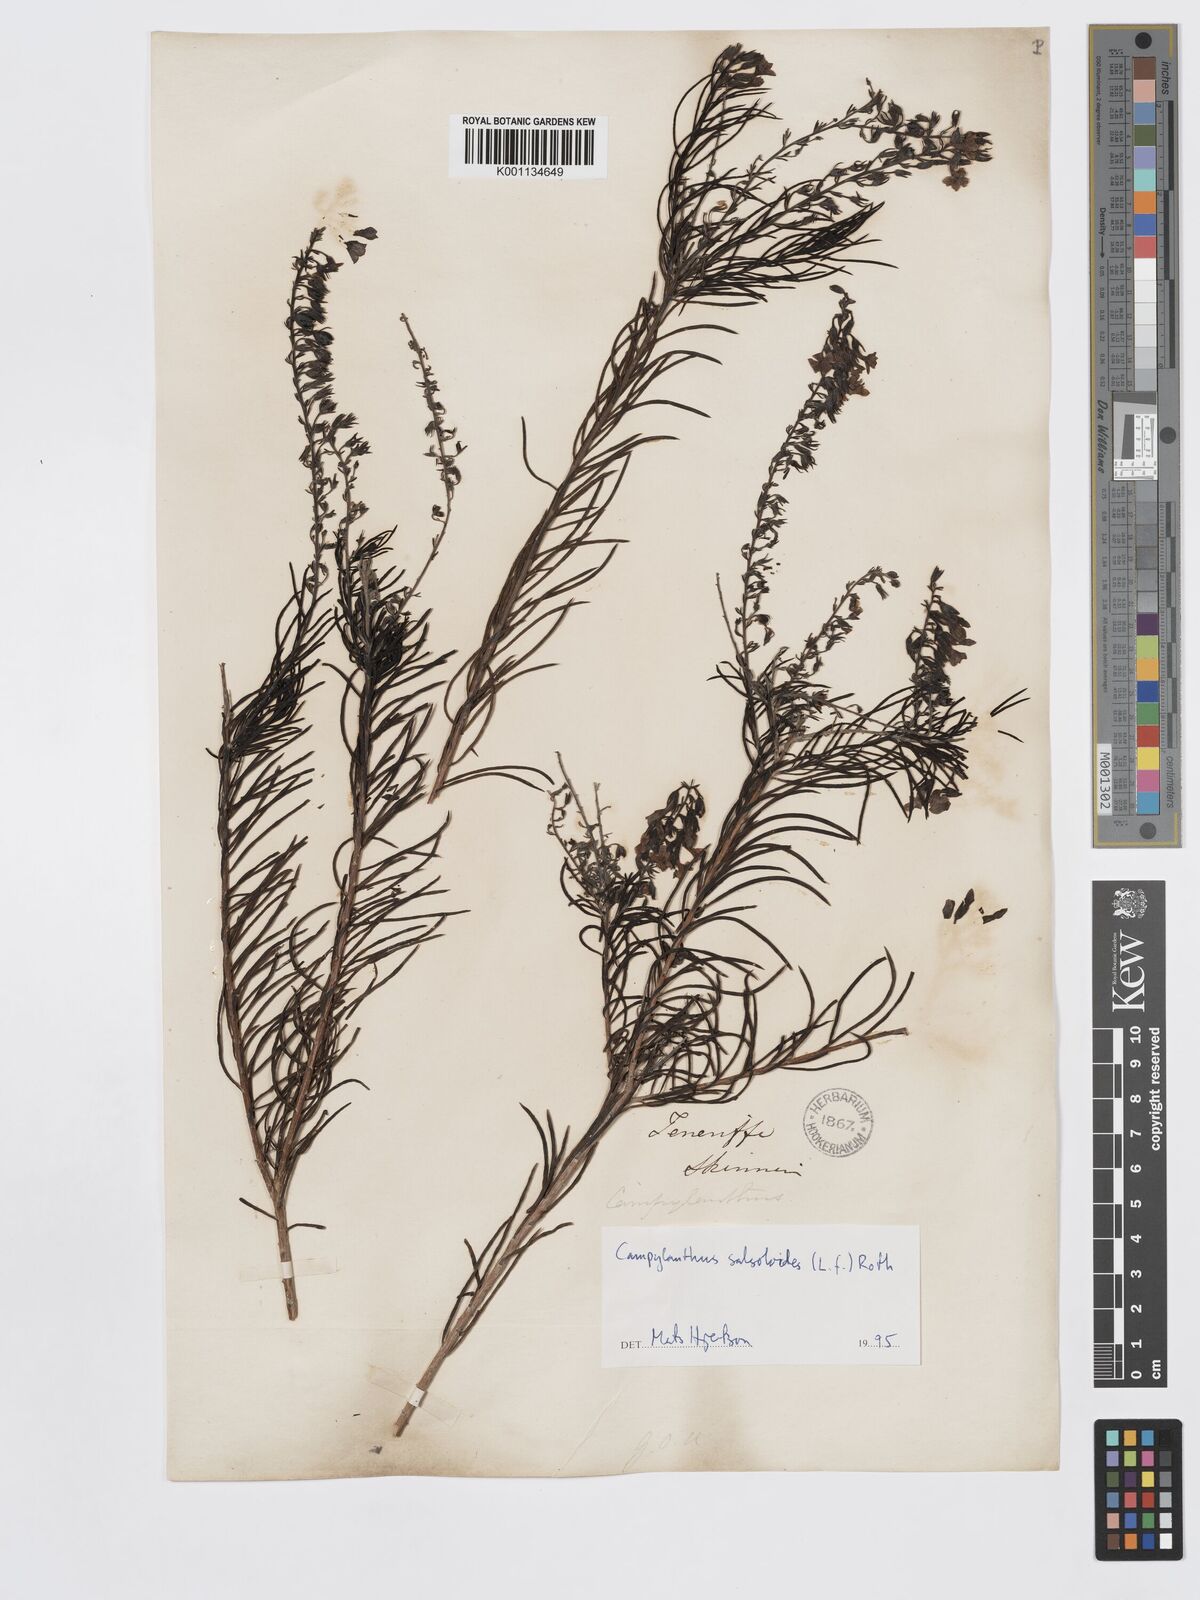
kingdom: Plantae
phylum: Tracheophyta
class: Magnoliopsida
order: Lamiales
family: Plantaginaceae
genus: Campylanthus
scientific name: Campylanthus
